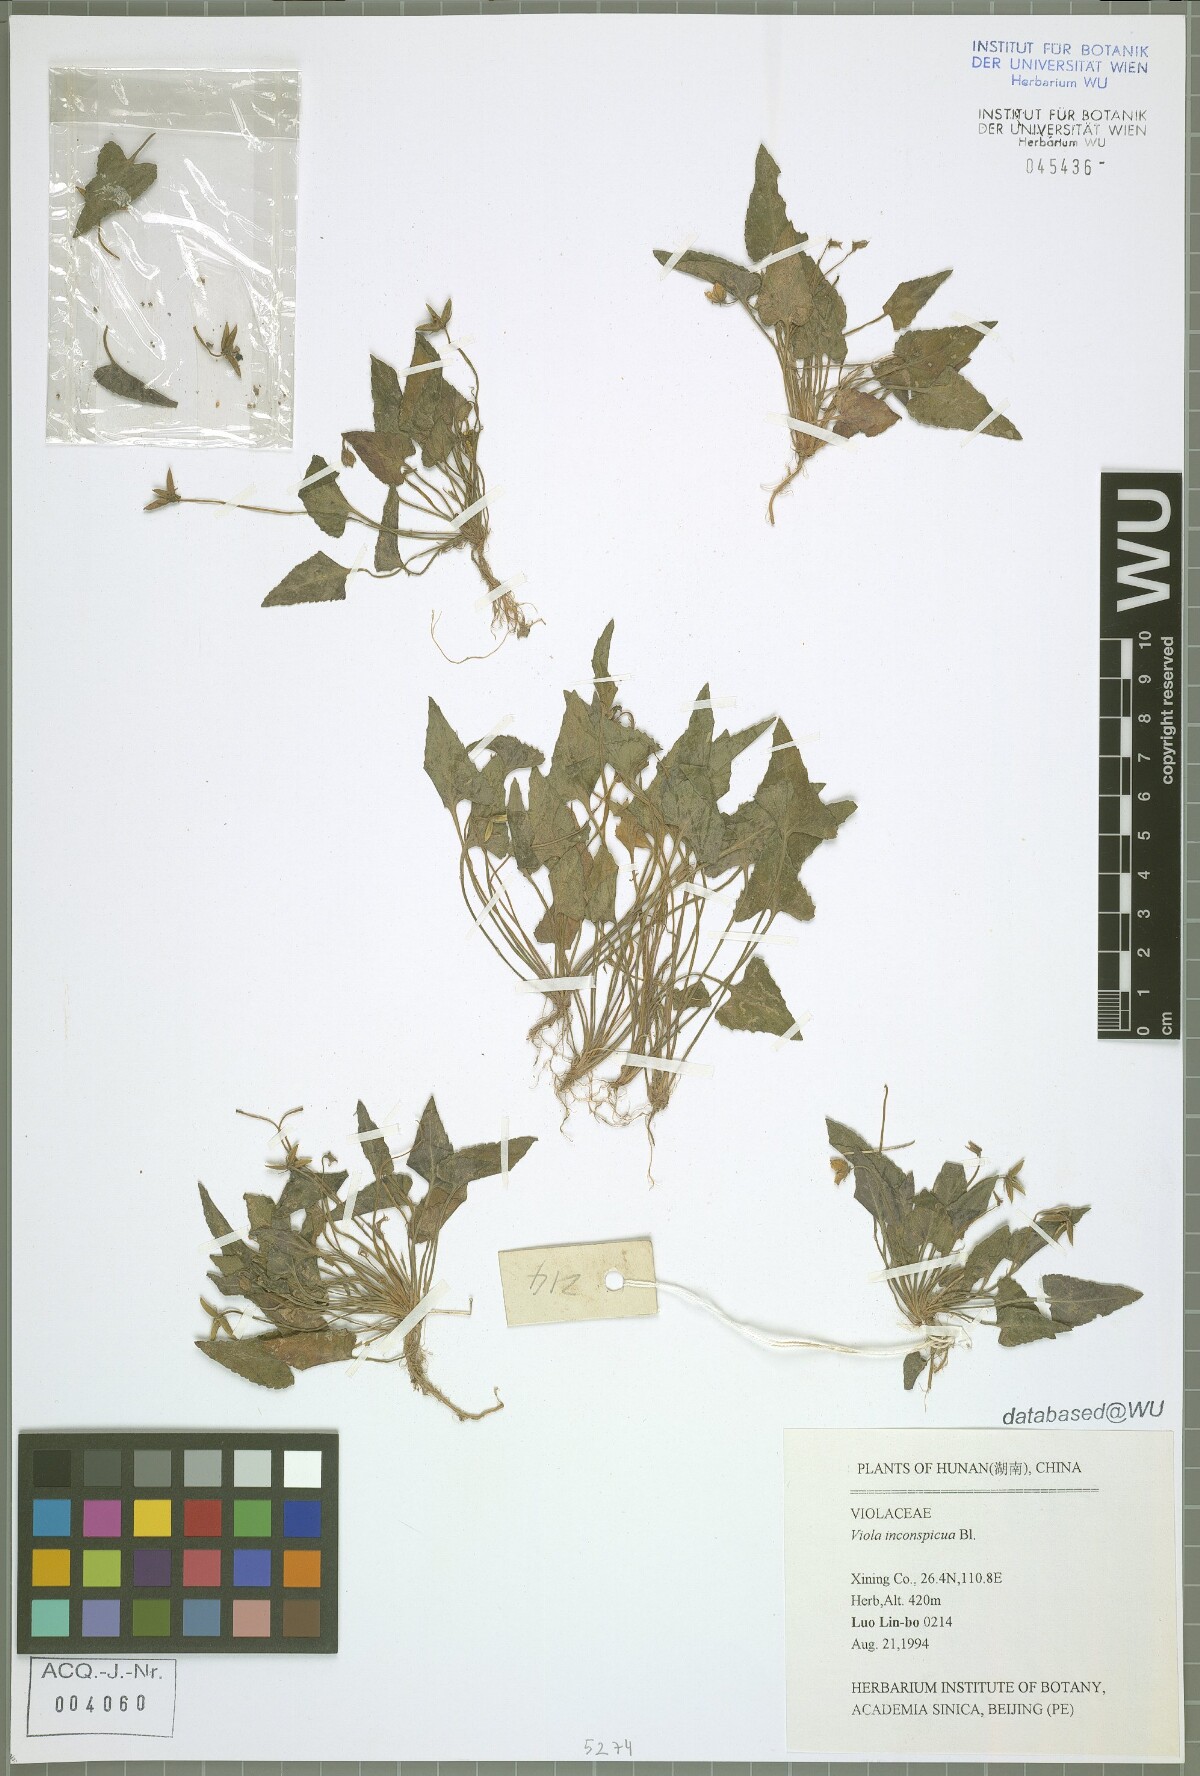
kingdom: Plantae
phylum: Tracheophyta
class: Magnoliopsida
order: Malpighiales
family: Violaceae
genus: Viola
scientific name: Viola inconspicua
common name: Long sepal violet
